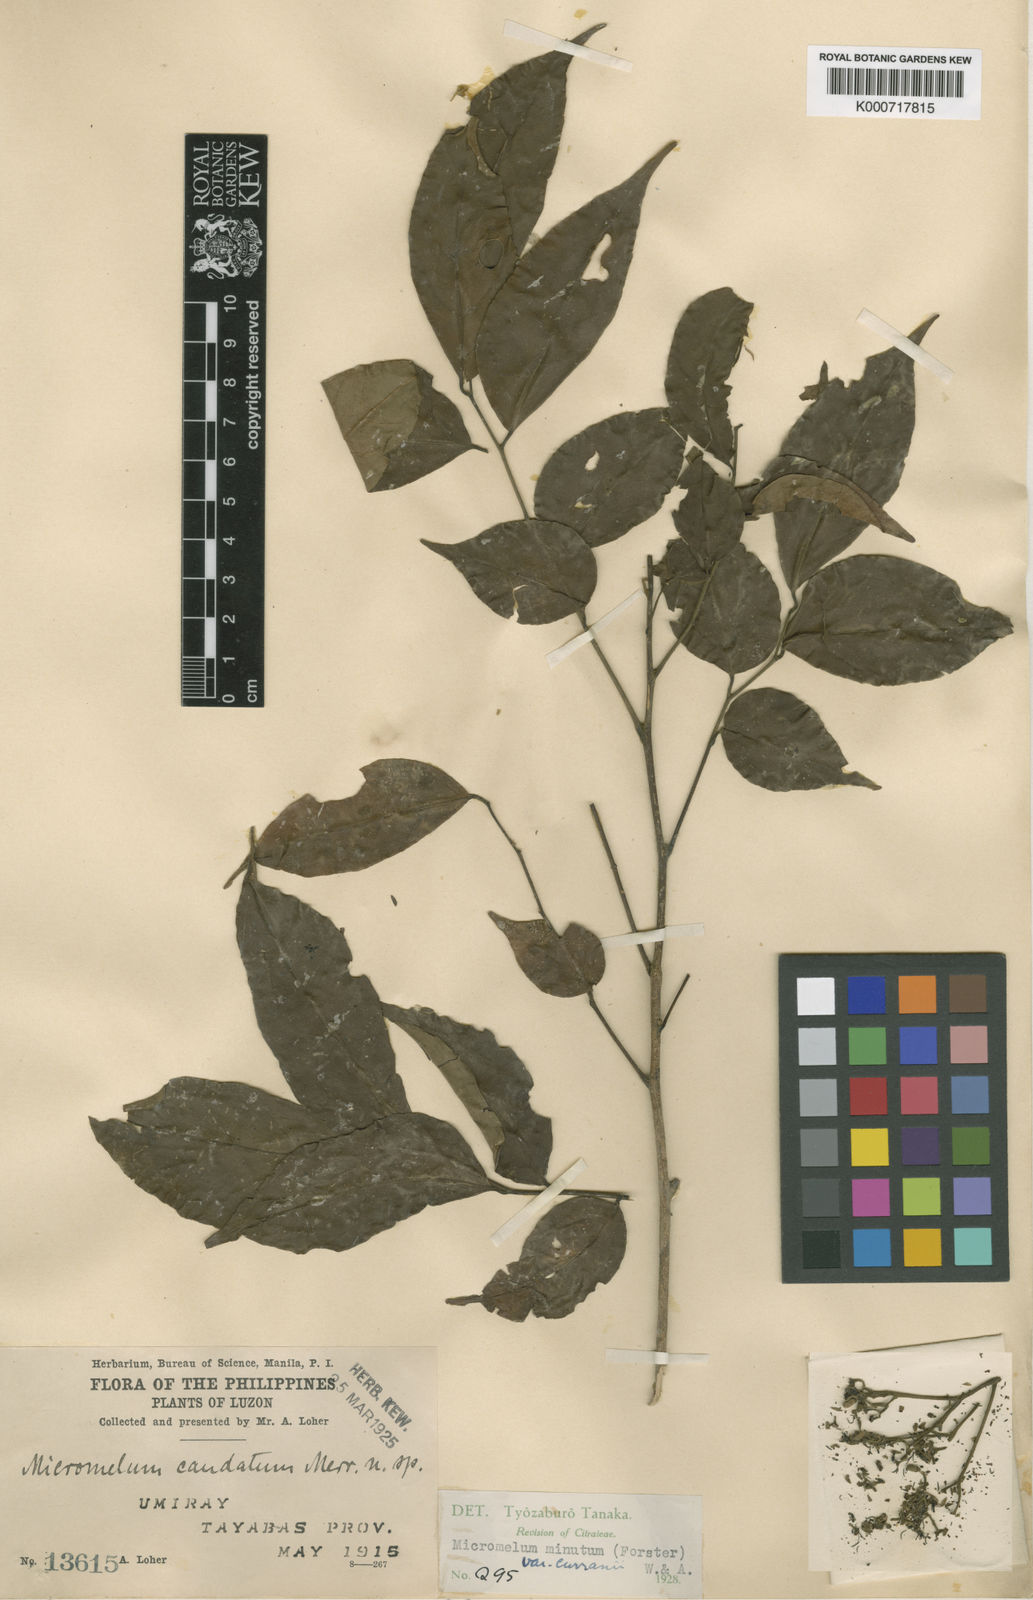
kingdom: Plantae
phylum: Tracheophyta
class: Magnoliopsida
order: Sapindales
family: Rutaceae
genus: Micromelum
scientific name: Micromelum minutum
